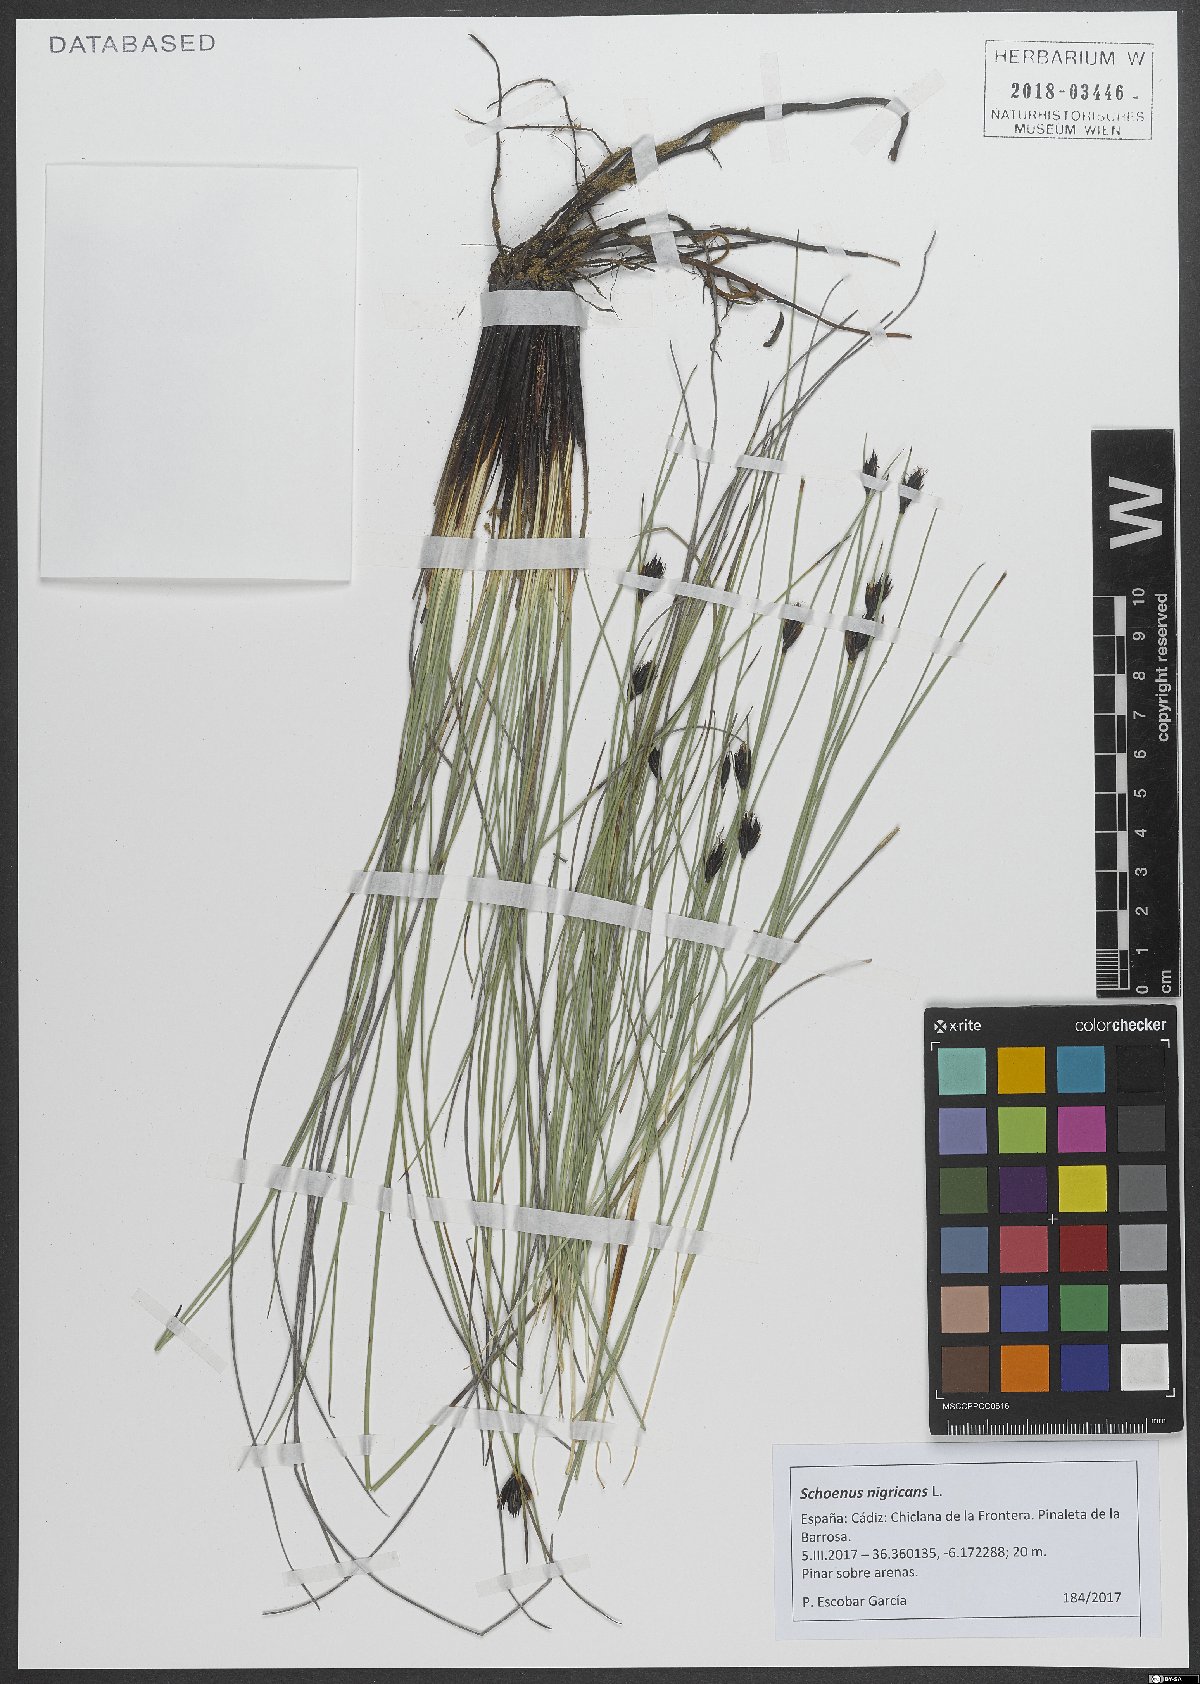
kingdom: Plantae
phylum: Tracheophyta
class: Liliopsida
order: Poales
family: Cyperaceae
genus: Schoenus
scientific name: Schoenus nigricans
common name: Black bog-rush
